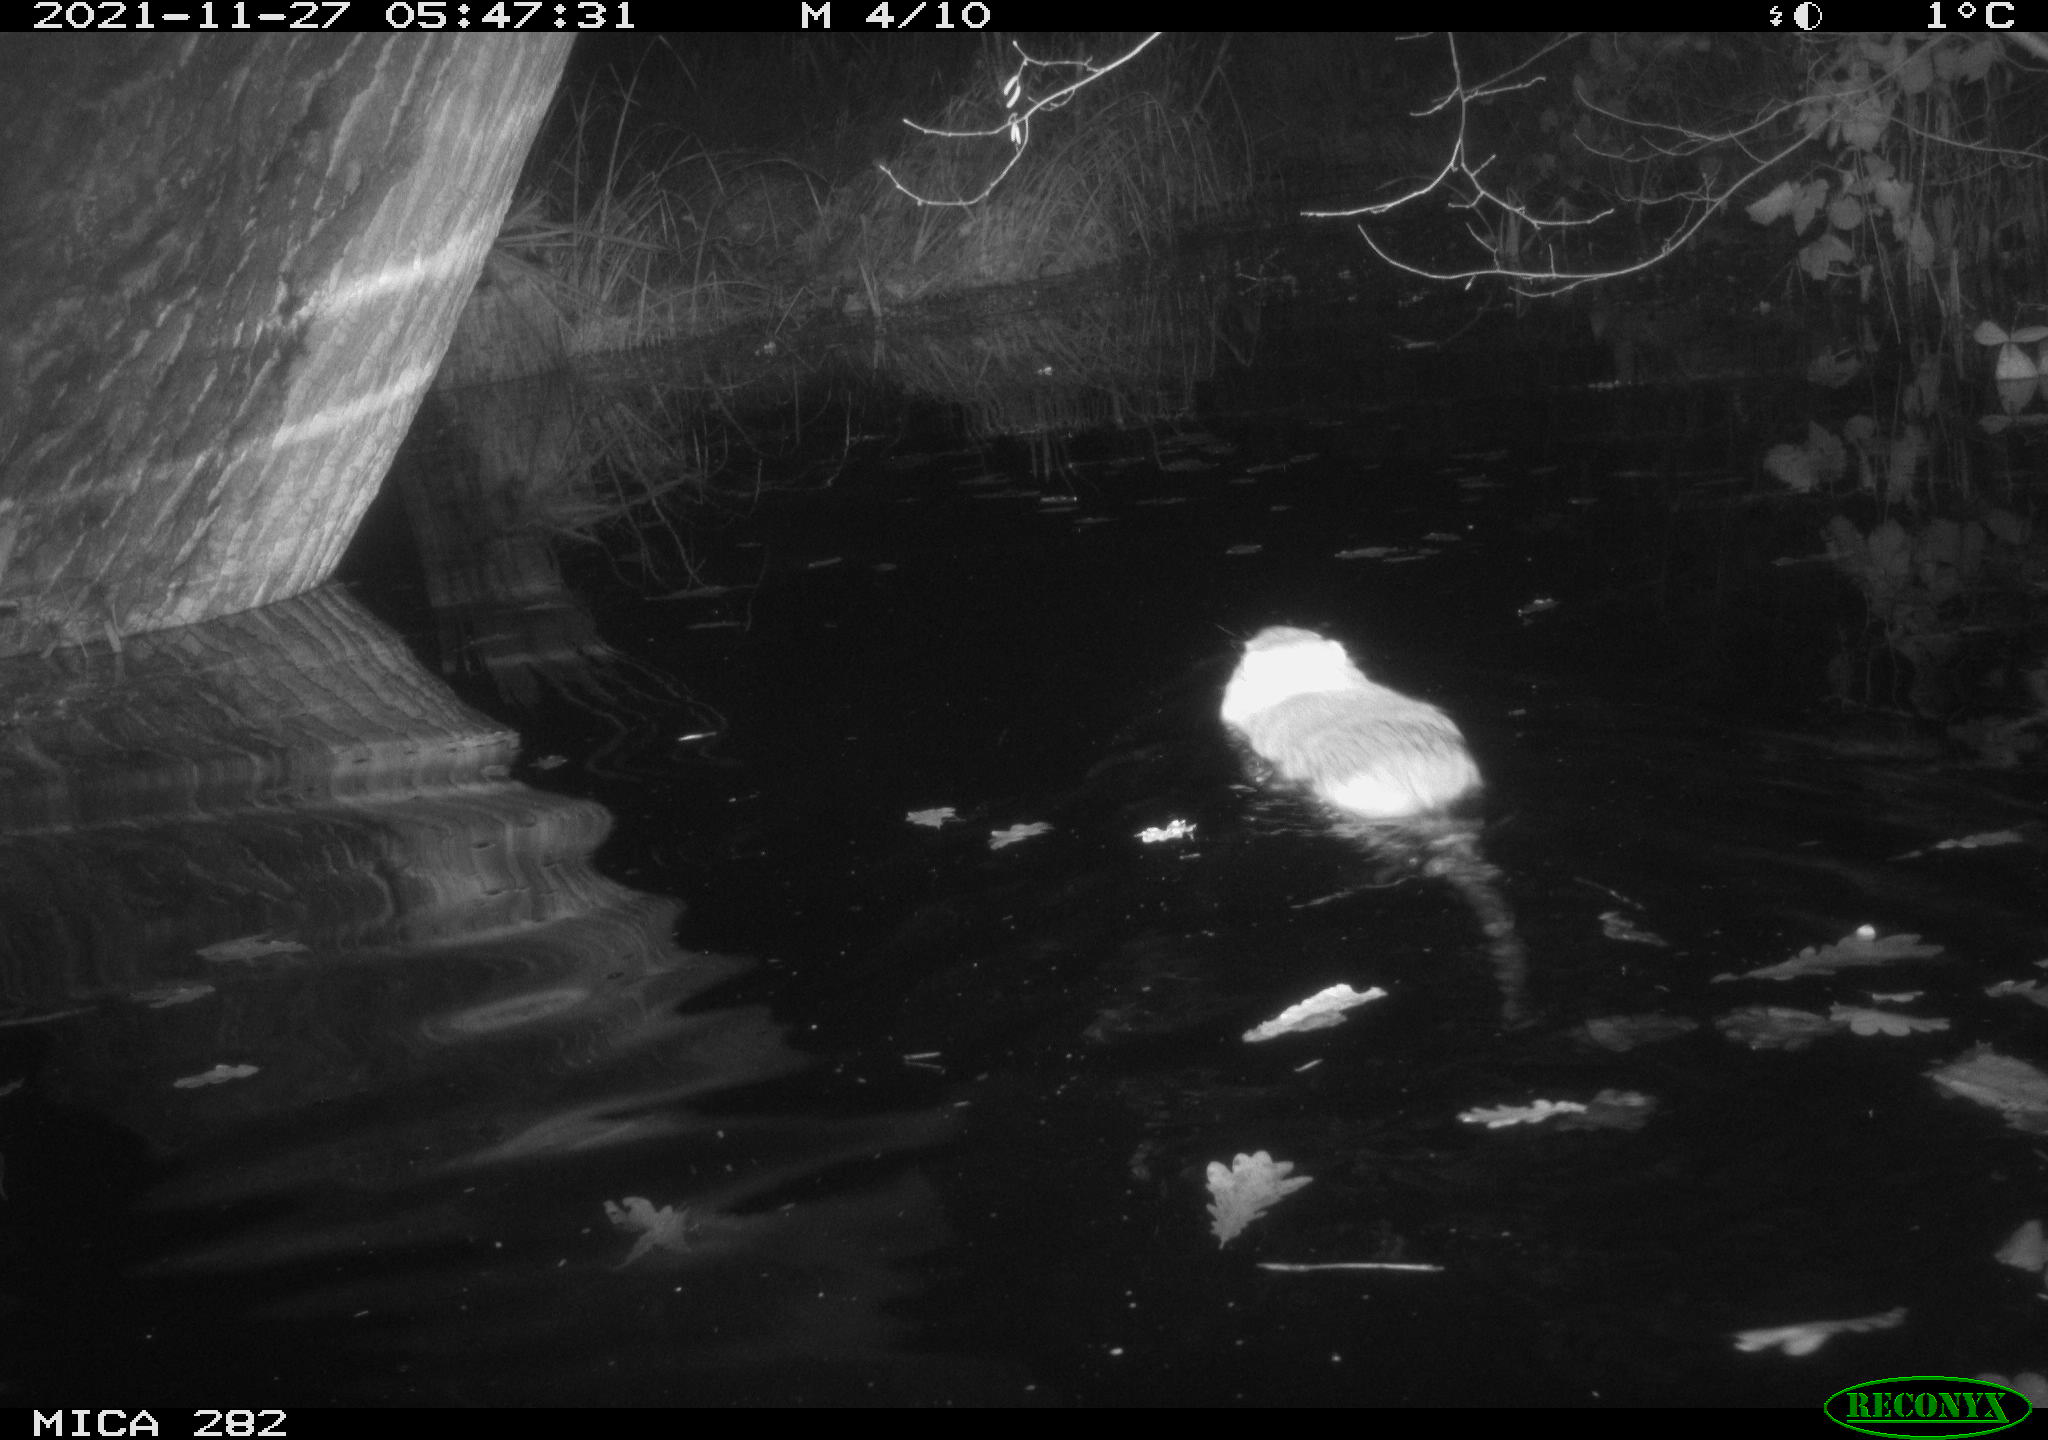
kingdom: Animalia
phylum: Chordata
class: Mammalia
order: Rodentia
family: Myocastoridae
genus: Myocastor
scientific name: Myocastor coypus
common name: Coypu
